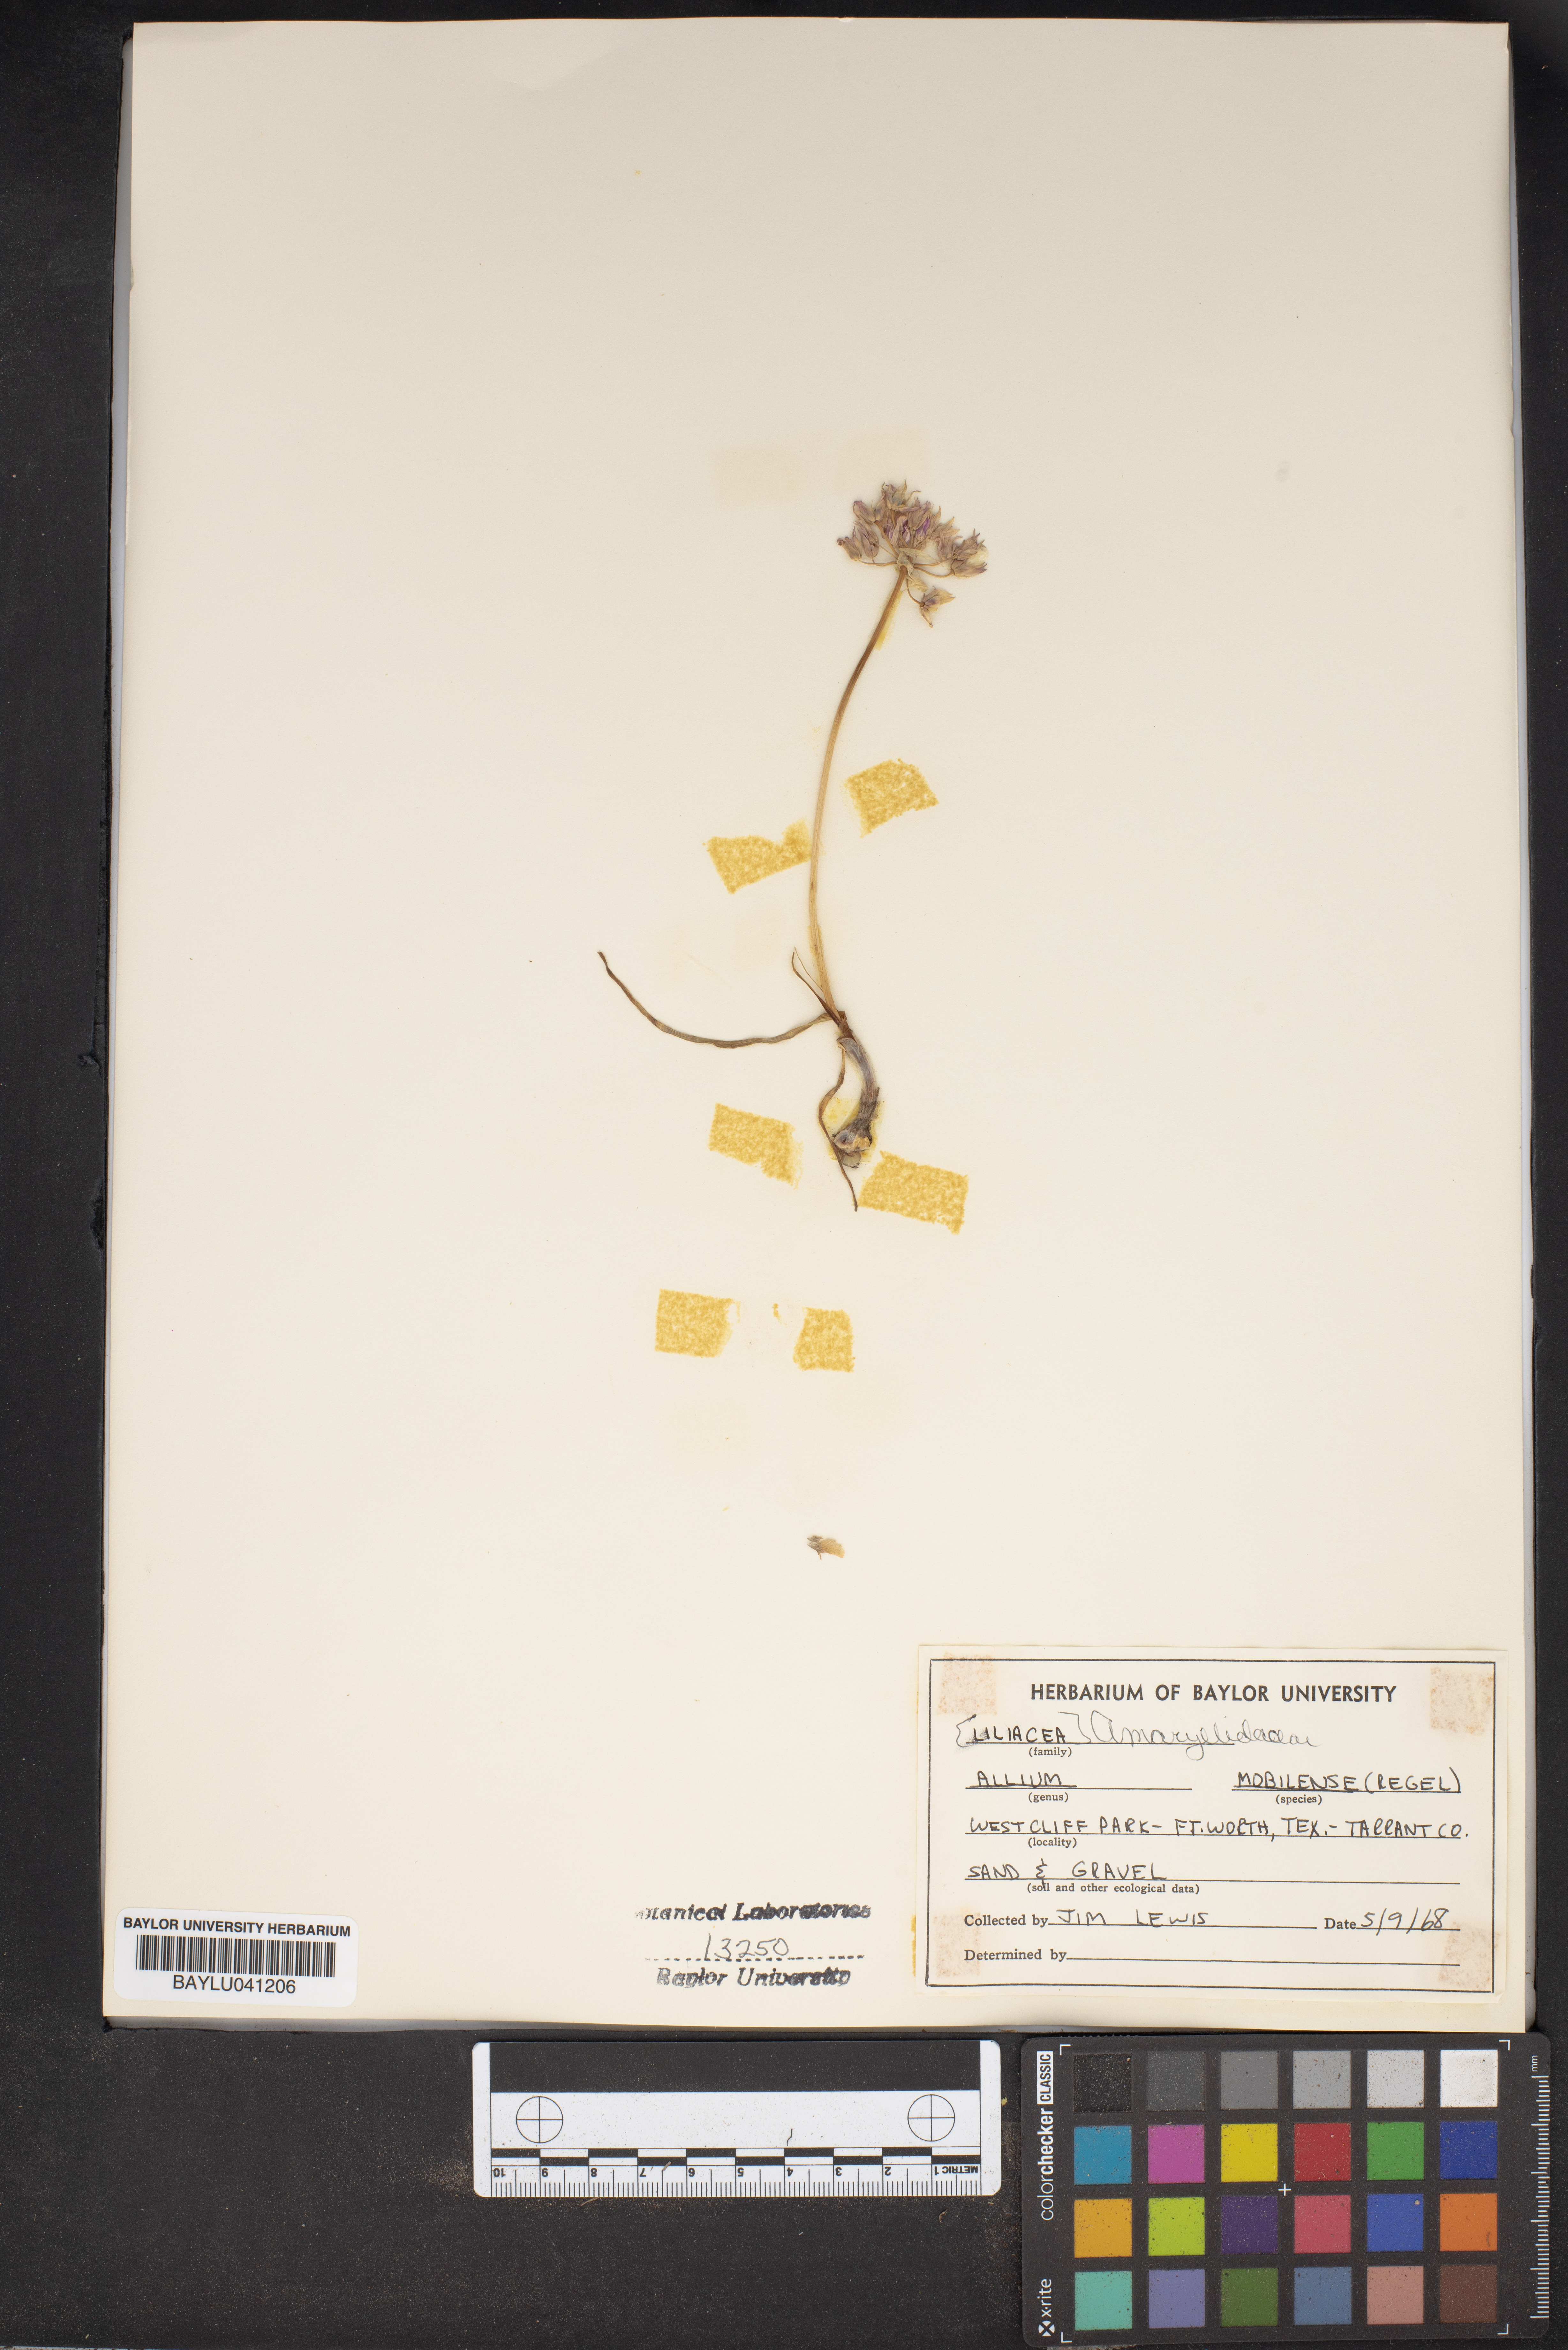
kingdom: Plantae
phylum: Tracheophyta
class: Liliopsida
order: Asparagales
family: Amaryllidaceae
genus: Allium
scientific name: Allium canadense
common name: Meadow garlic
